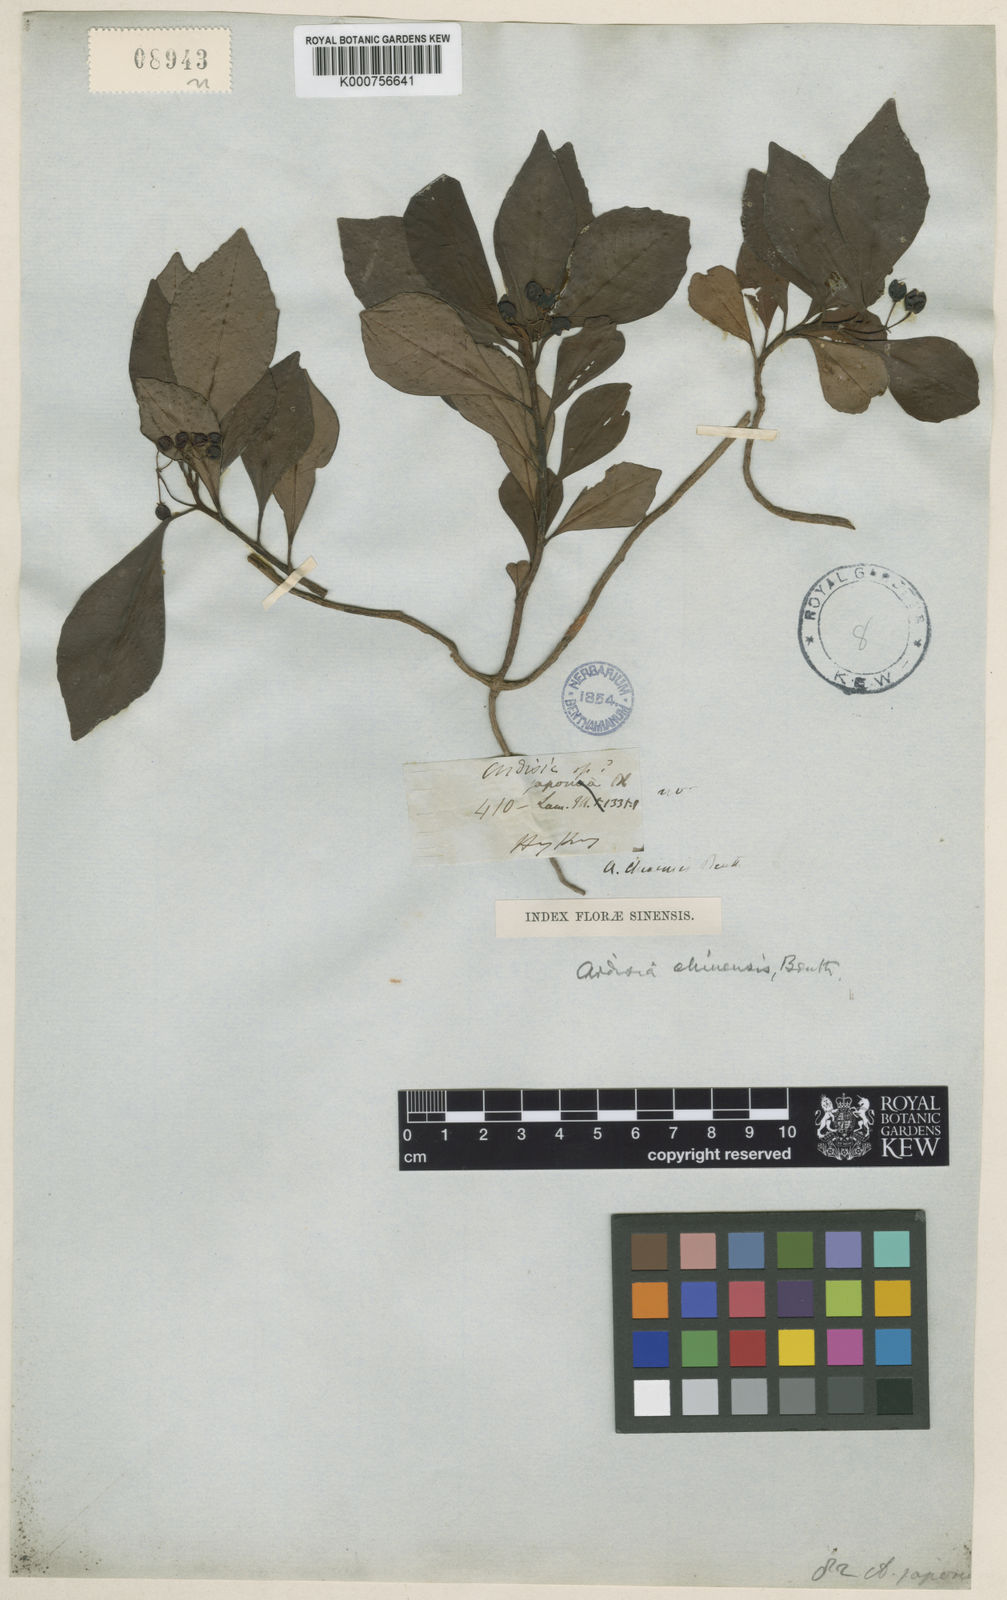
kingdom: Plantae
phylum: Tracheophyta
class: Magnoliopsida
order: Ericales
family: Primulaceae
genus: Ardisia
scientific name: Ardisia cymosa
